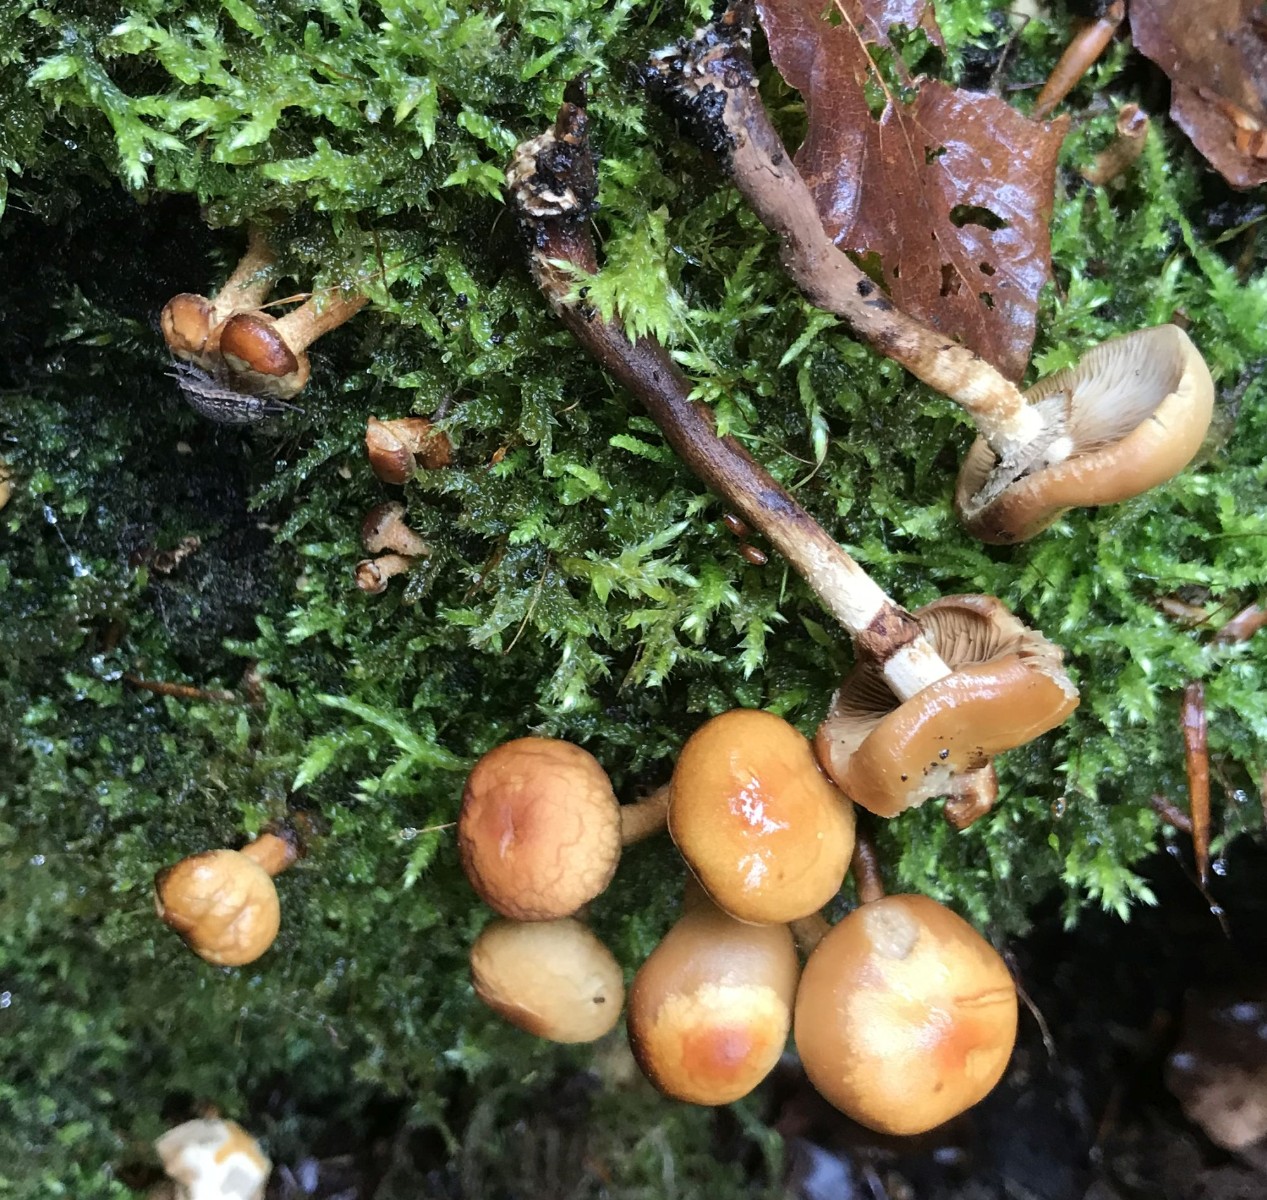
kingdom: Fungi
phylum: Basidiomycota
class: Agaricomycetes
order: Agaricales
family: Strophariaceae
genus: Kuehneromyces
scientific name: Kuehneromyces mutabilis
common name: foranderlig skælhat
